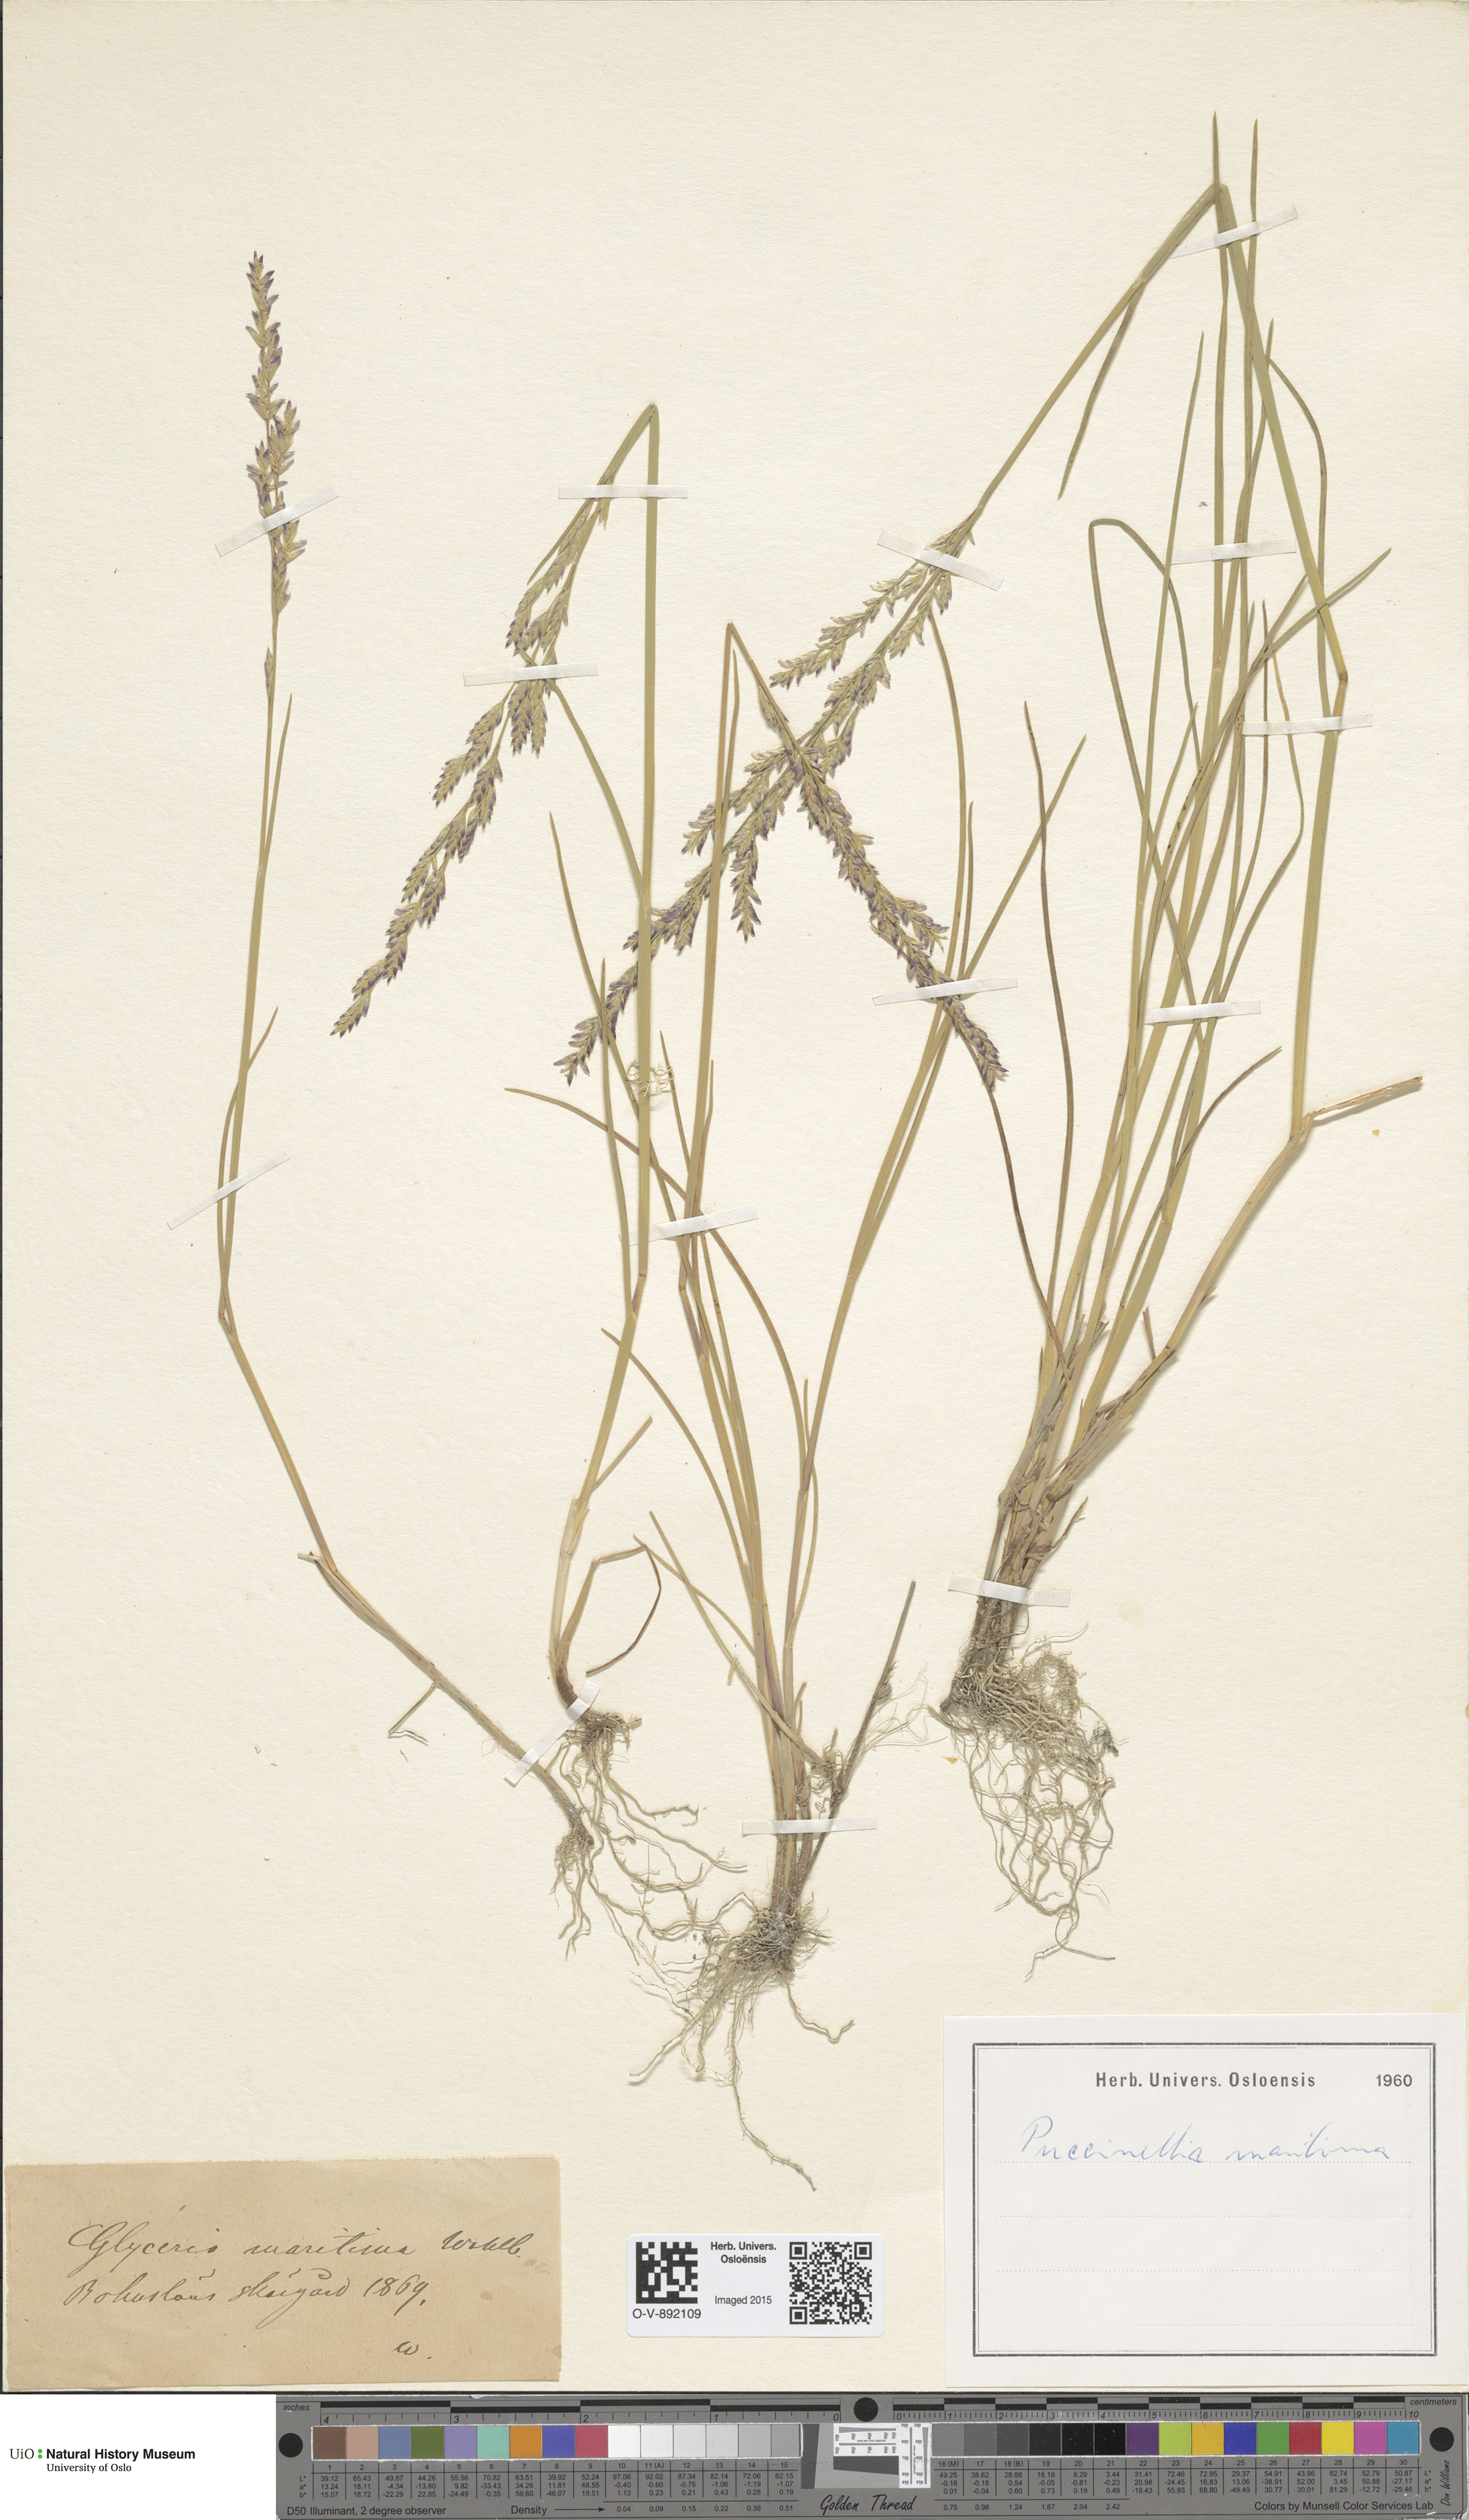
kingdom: Plantae
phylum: Tracheophyta
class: Liliopsida
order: Poales
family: Poaceae
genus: Puccinellia
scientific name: Puccinellia maritima
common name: Common saltmarsh grass
